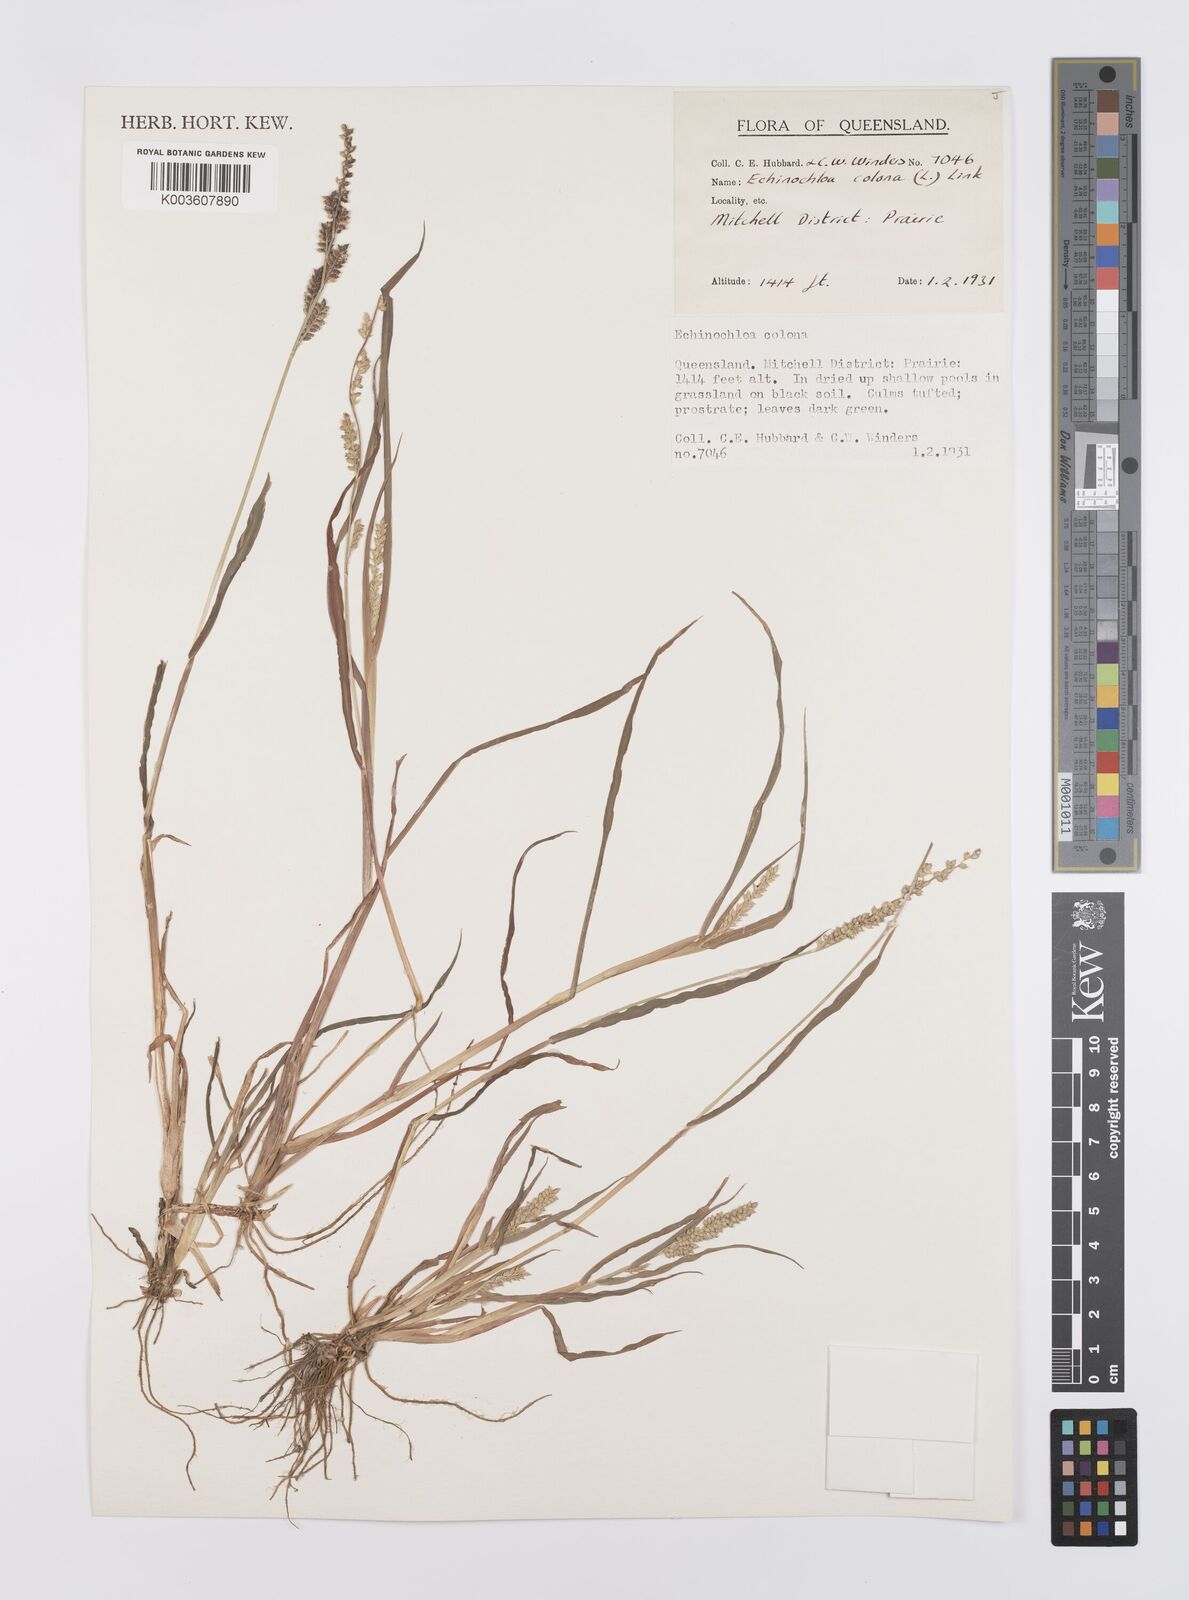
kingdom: Plantae
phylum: Tracheophyta
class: Liliopsida
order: Poales
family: Poaceae
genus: Echinochloa
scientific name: Echinochloa colonum
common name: Jungle rice
